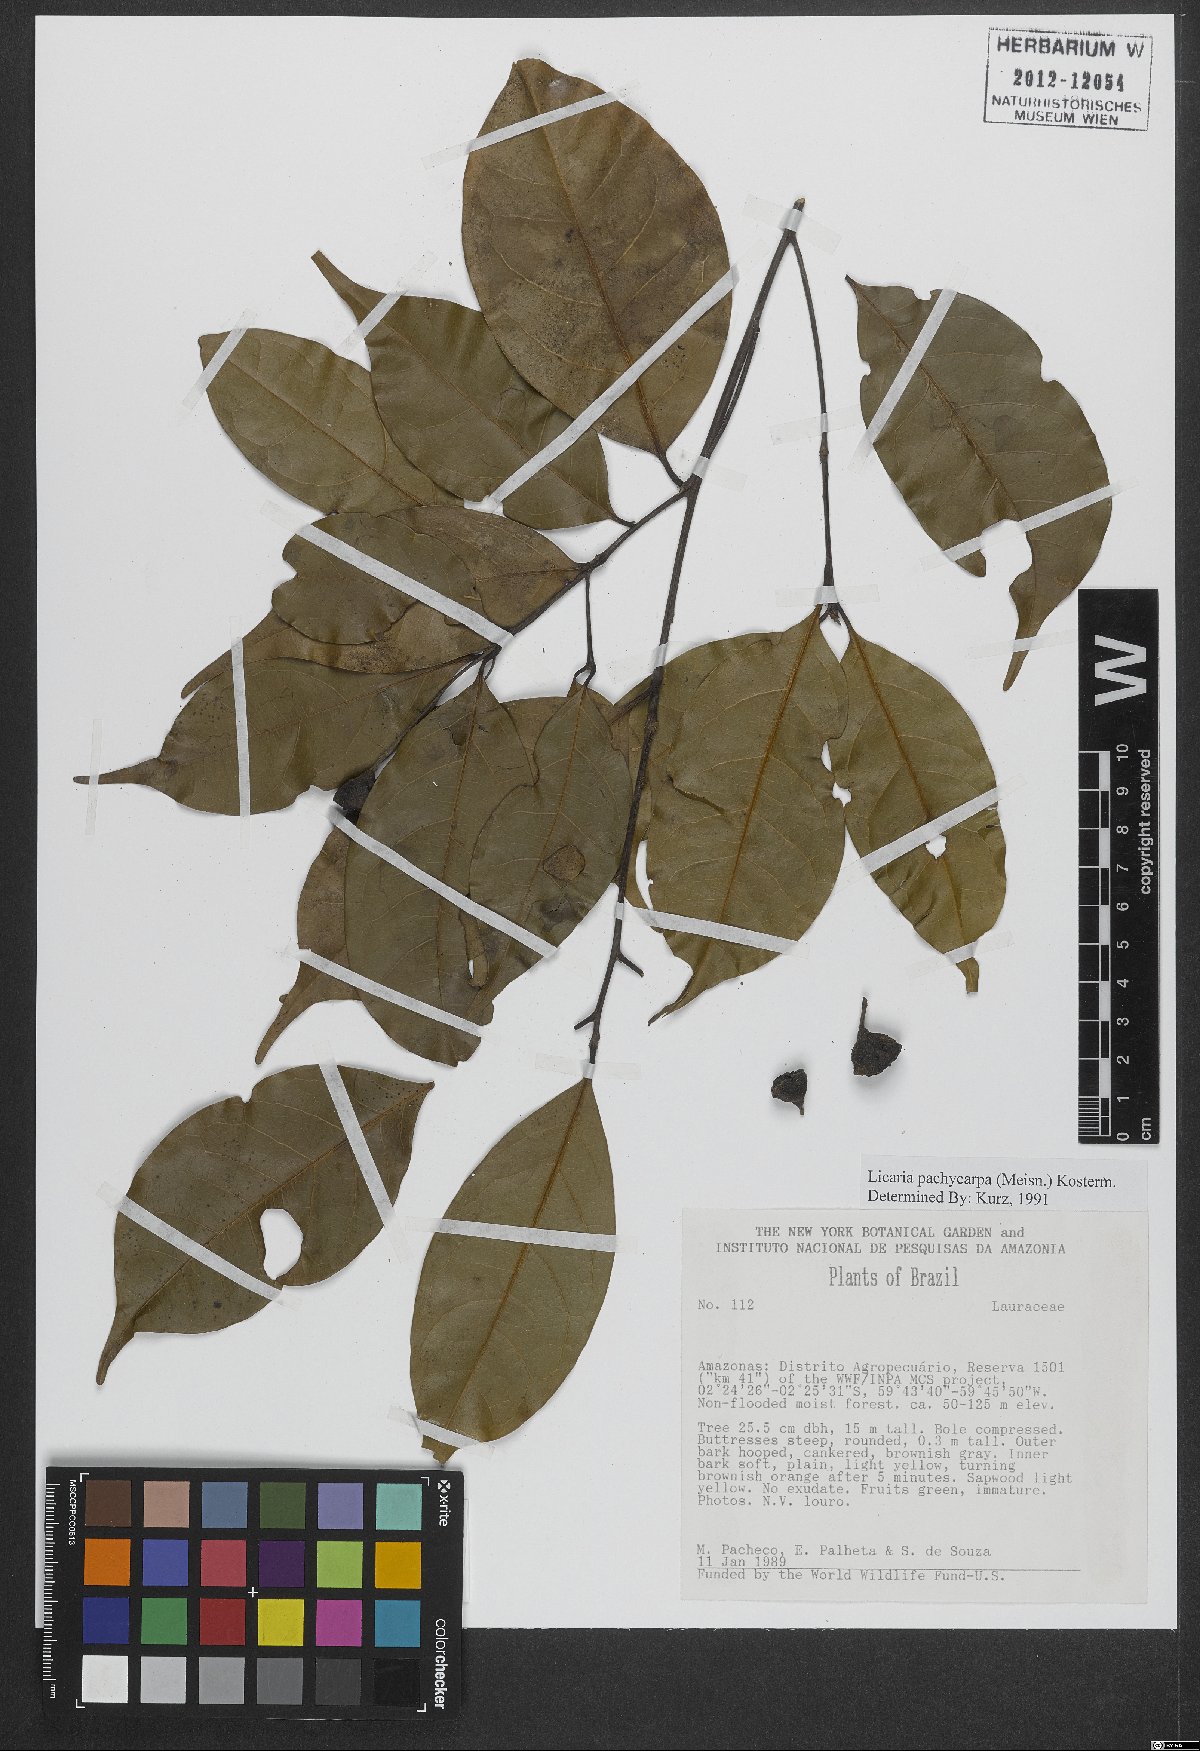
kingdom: Plantae
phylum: Tracheophyta
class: Magnoliopsida
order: Laurales
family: Lauraceae
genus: Licaria
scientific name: Licaria pachycarpa
